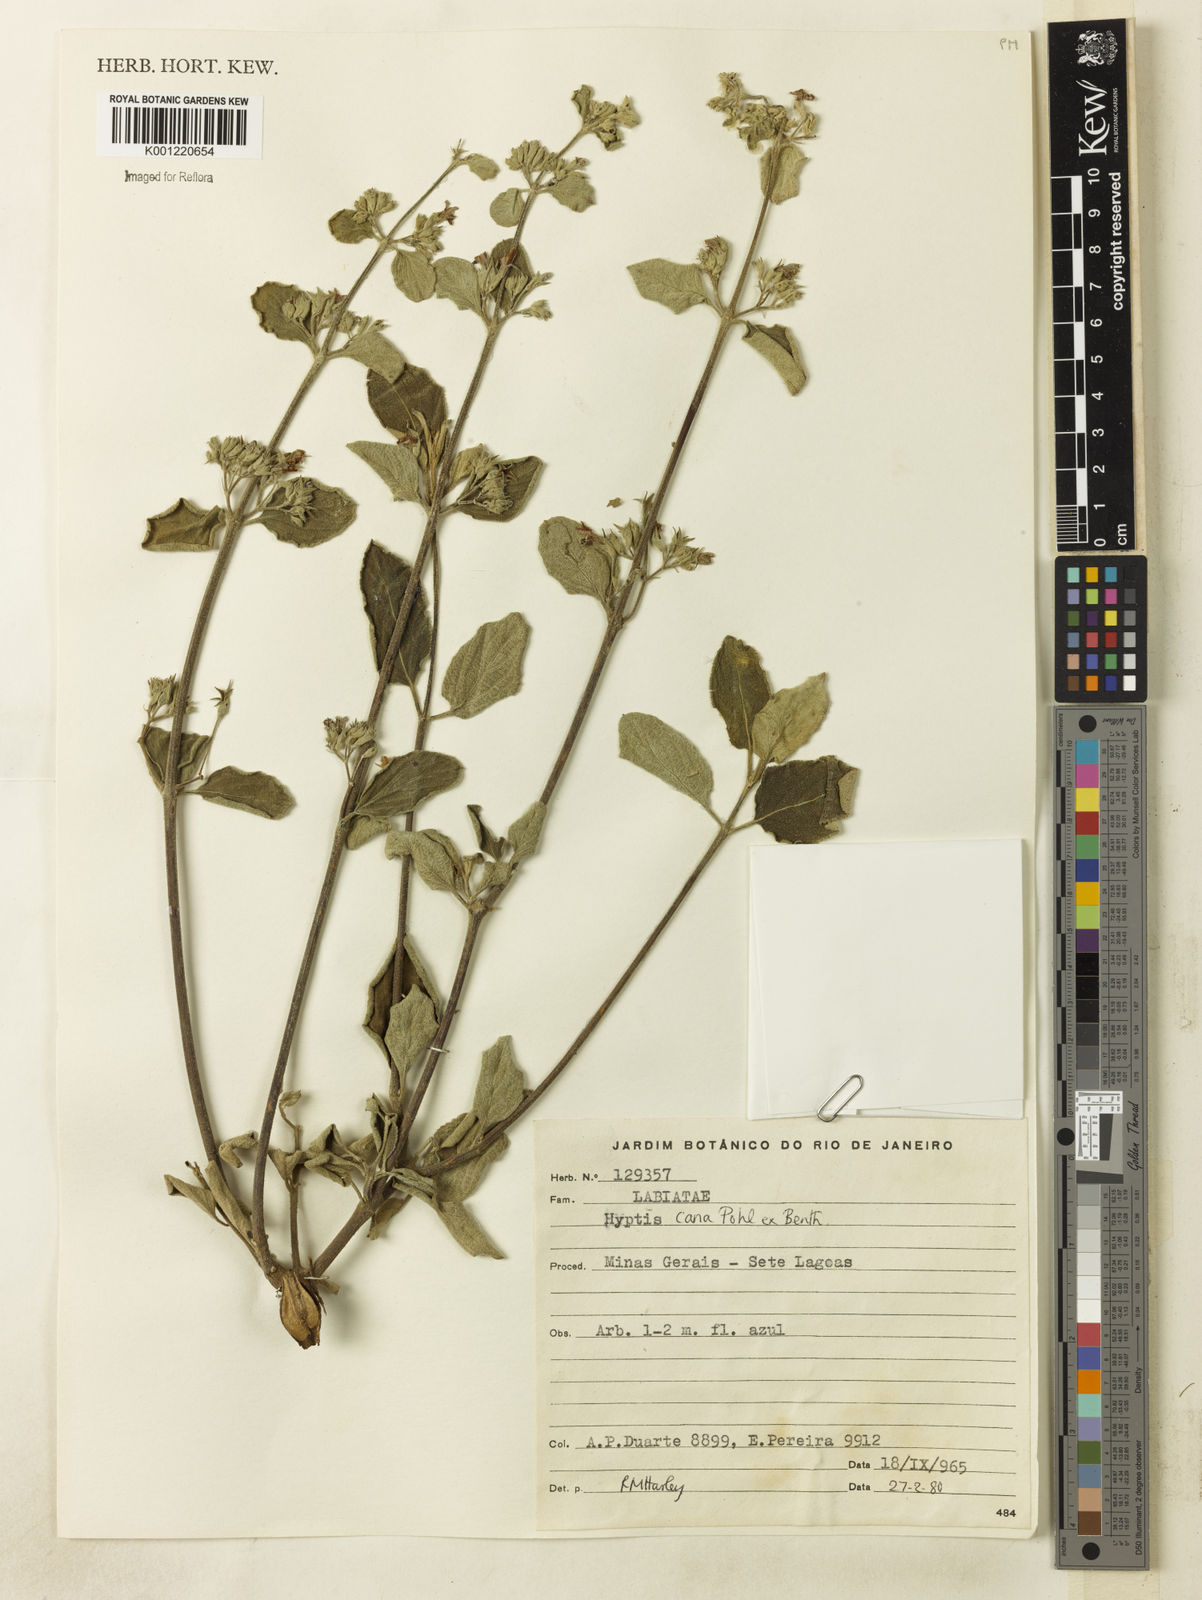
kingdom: Plantae
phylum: Tracheophyta
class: Magnoliopsida
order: Lamiales
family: Lamiaceae
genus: Hyptidendron
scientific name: Hyptidendron canum
